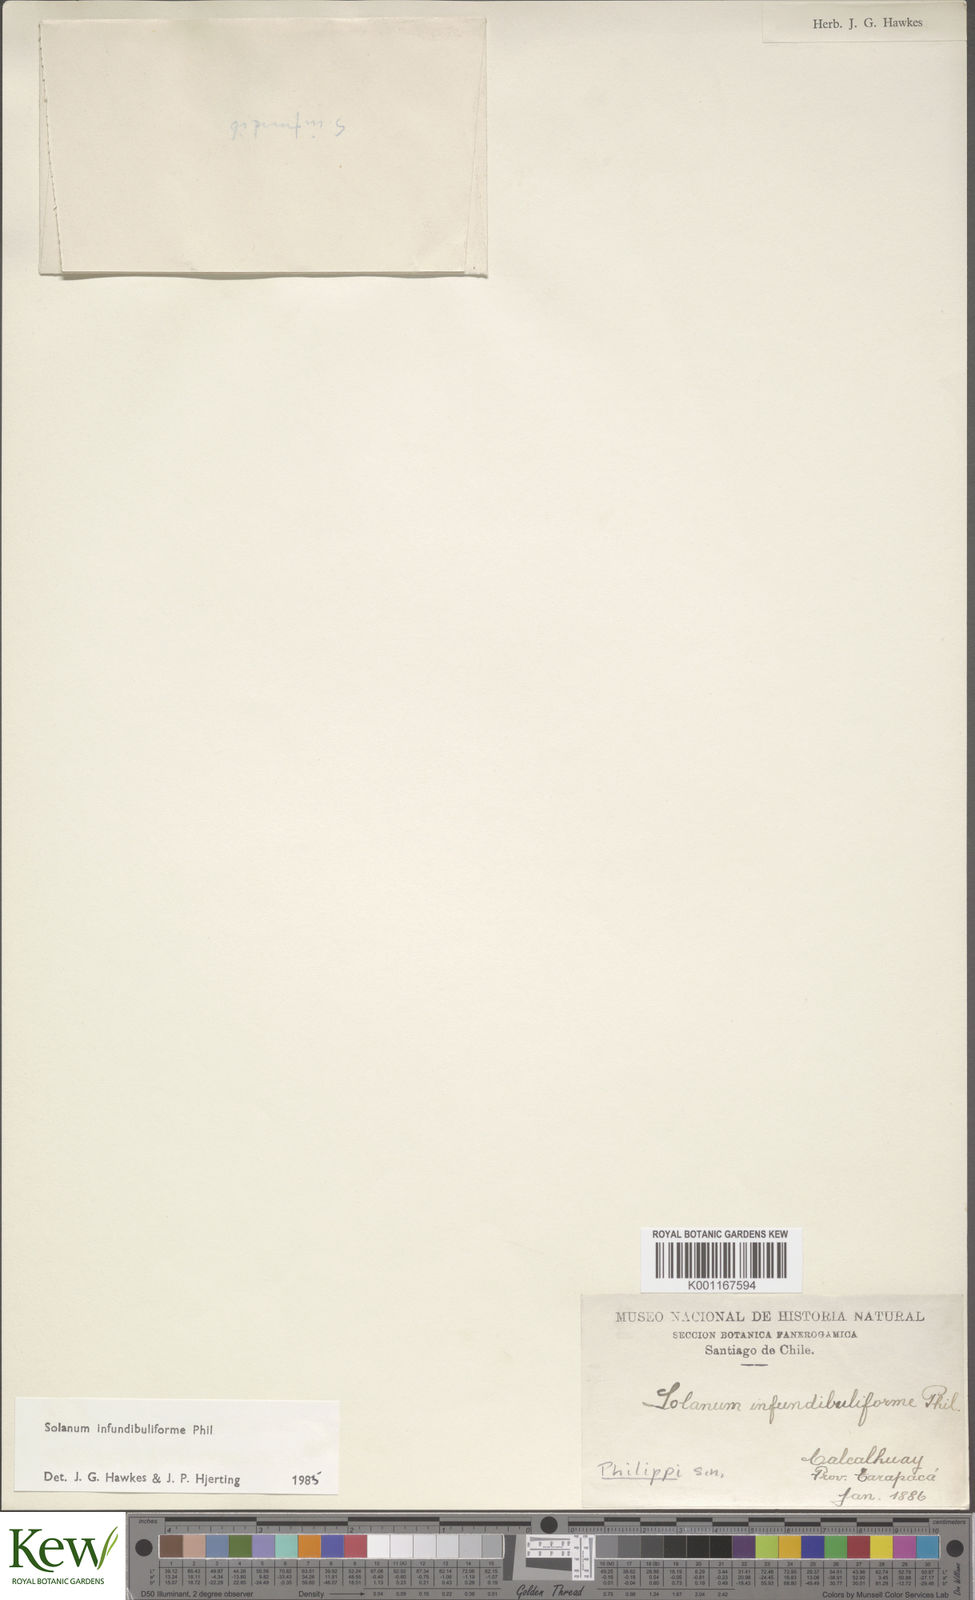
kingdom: Plantae
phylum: Tracheophyta
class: Magnoliopsida
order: Solanales
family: Solanaceae
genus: Solanum
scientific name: Solanum infundibuliforme
